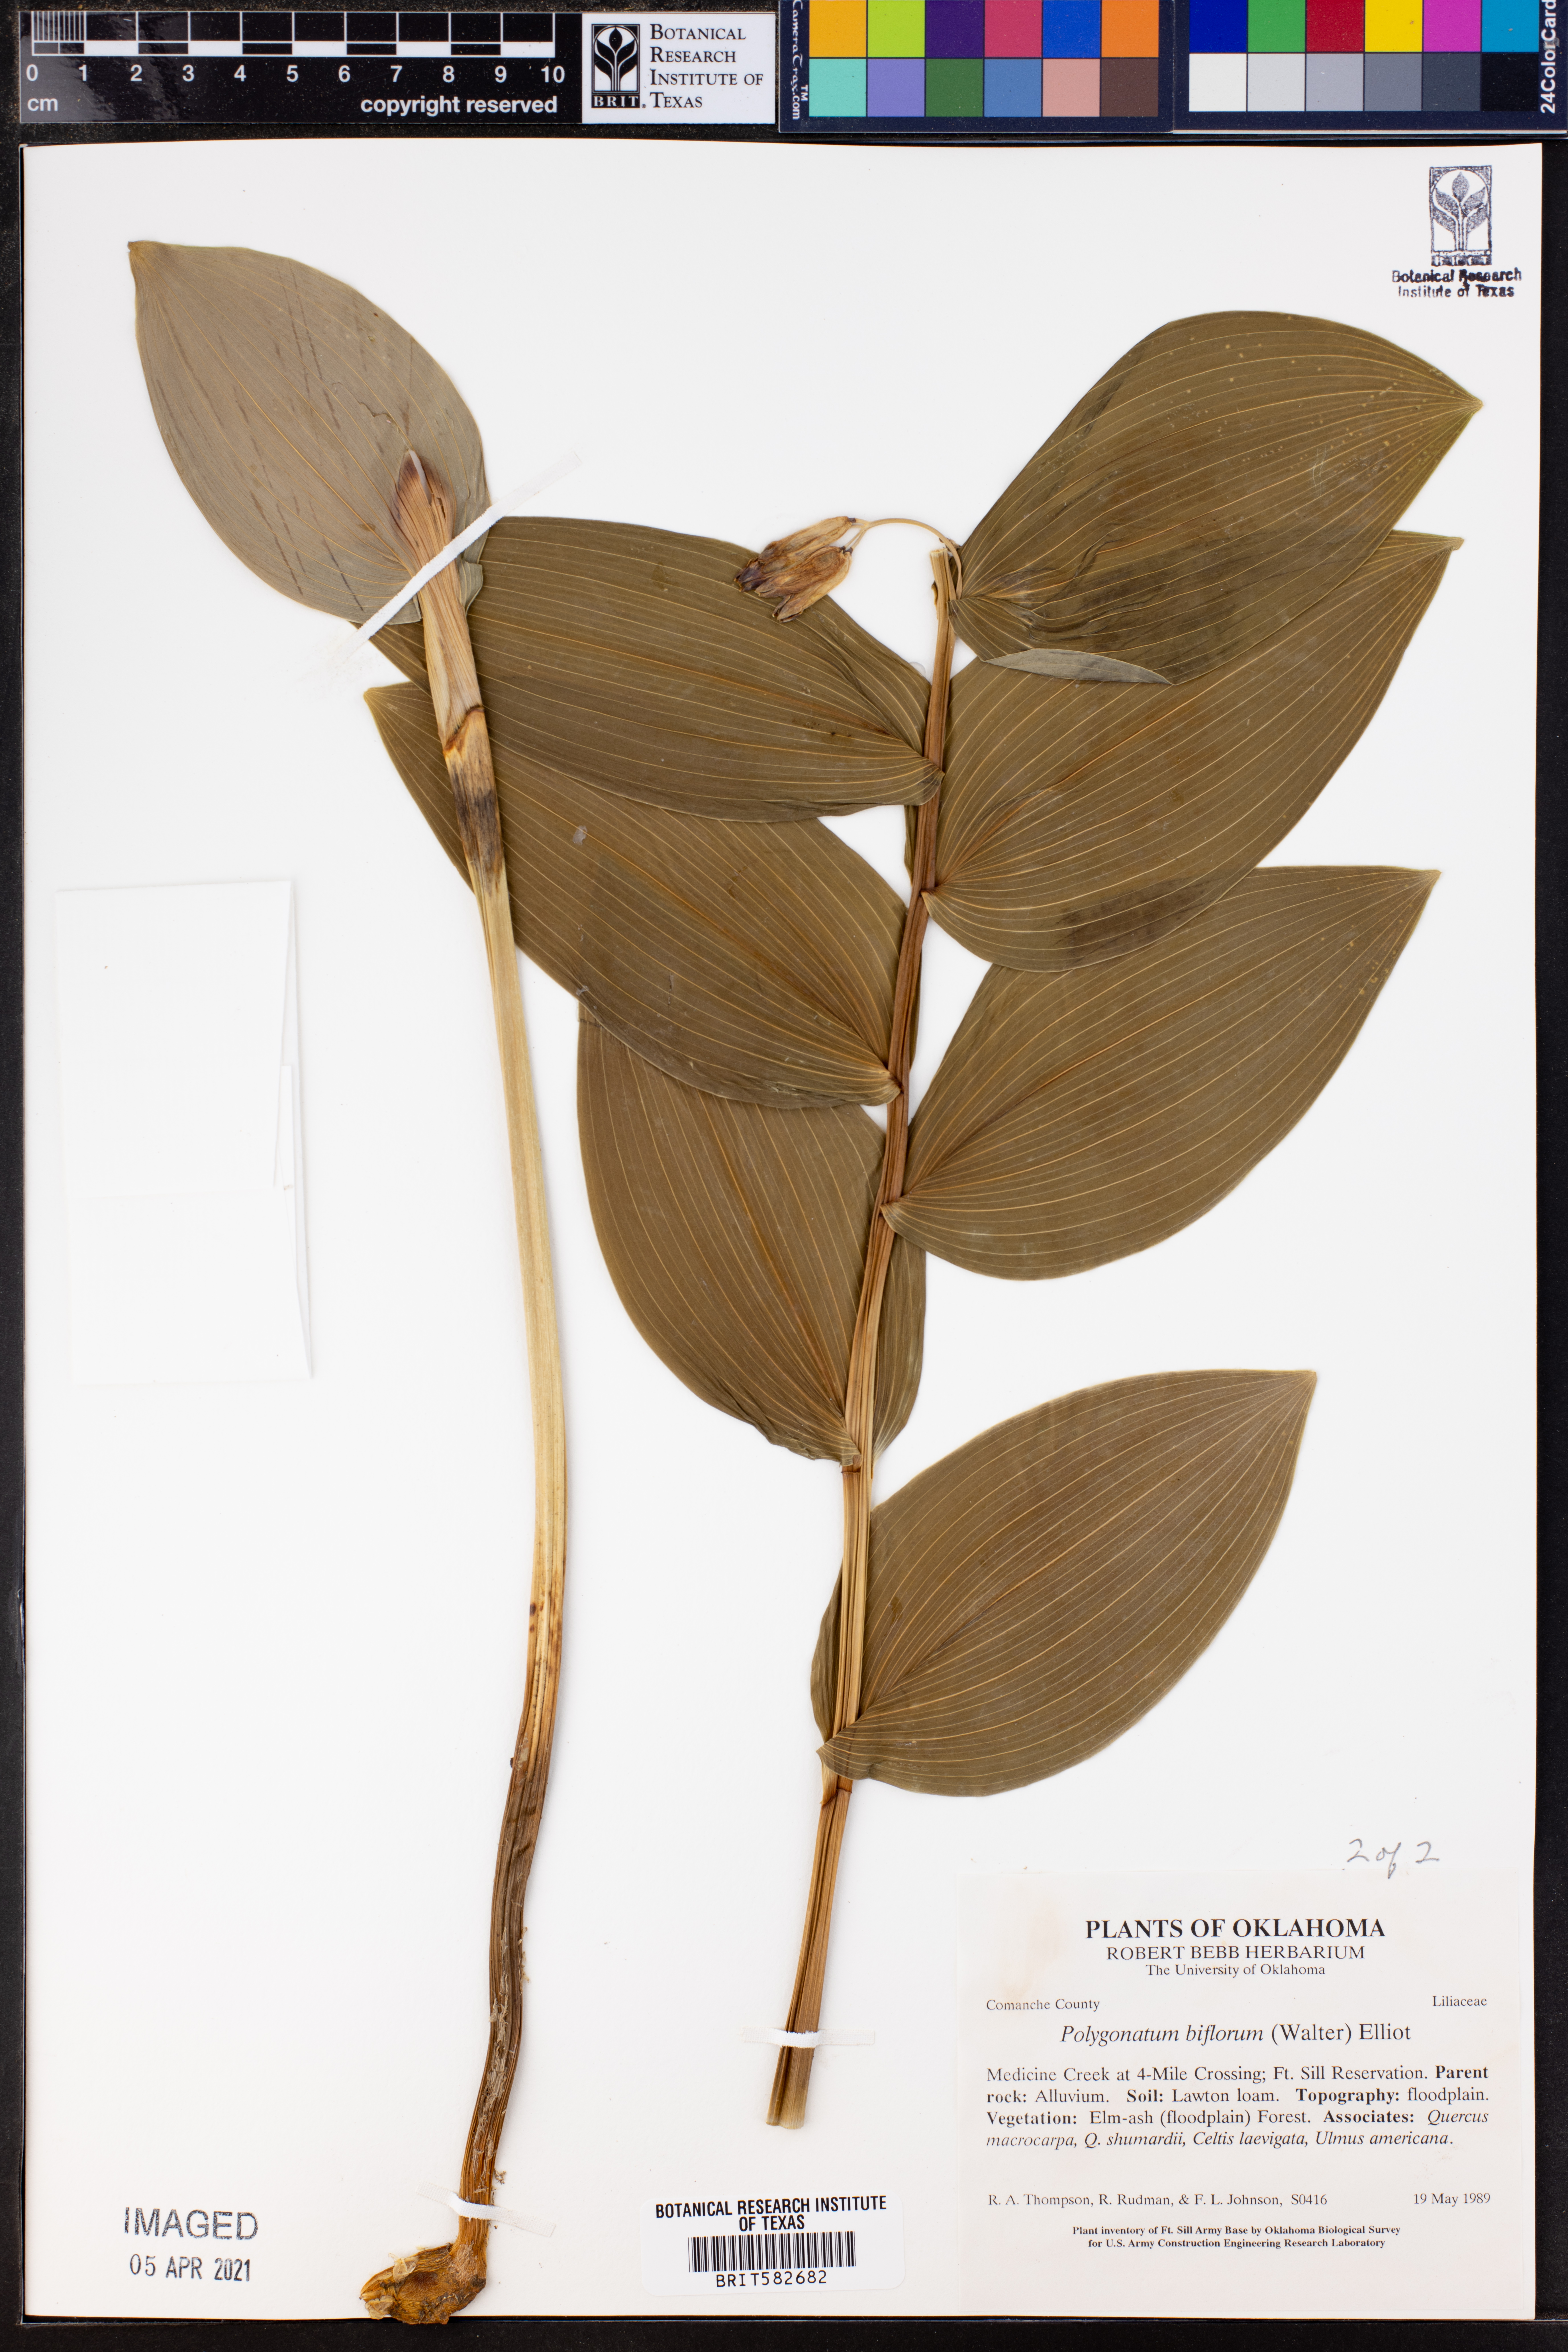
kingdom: Plantae
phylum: Tracheophyta
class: Liliopsida
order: Asparagales
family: Asparagaceae
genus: Polygonatum
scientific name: Polygonatum biflorum
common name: American solomon's-seal
